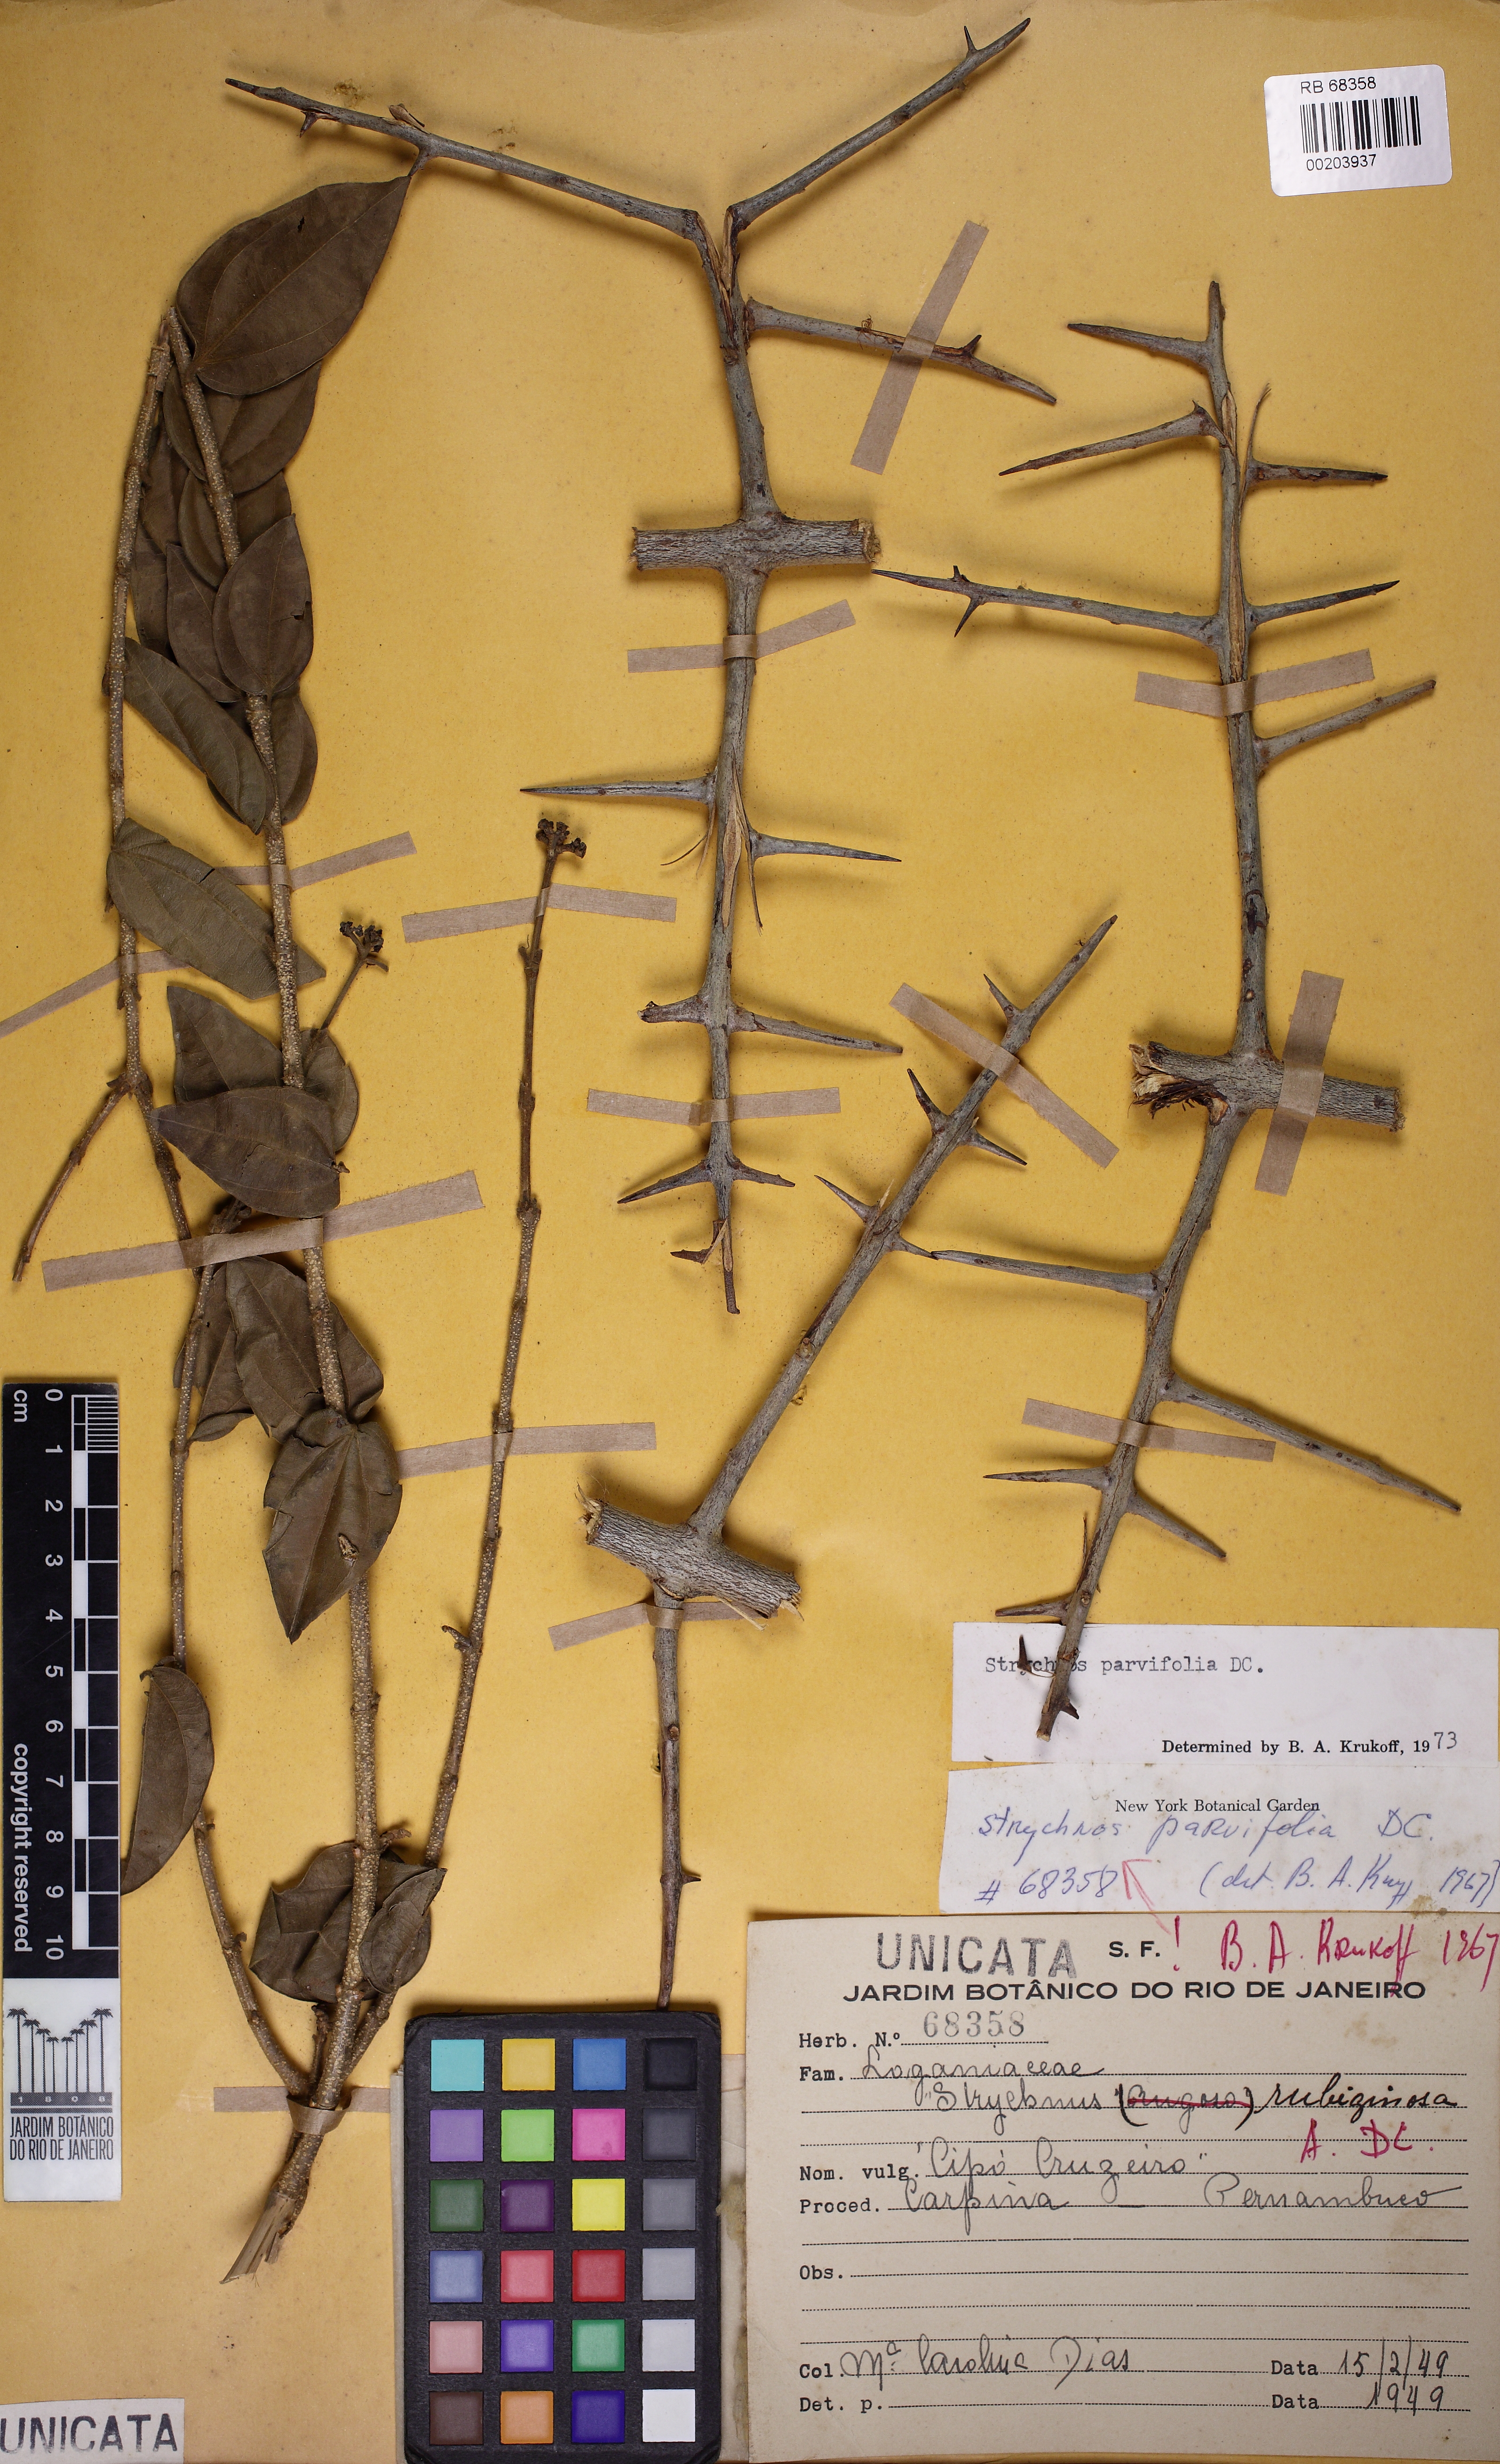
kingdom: Plantae
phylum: Tracheophyta
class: Magnoliopsida
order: Gentianales
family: Loganiaceae
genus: Strychnos
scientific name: Strychnos parvifolia
